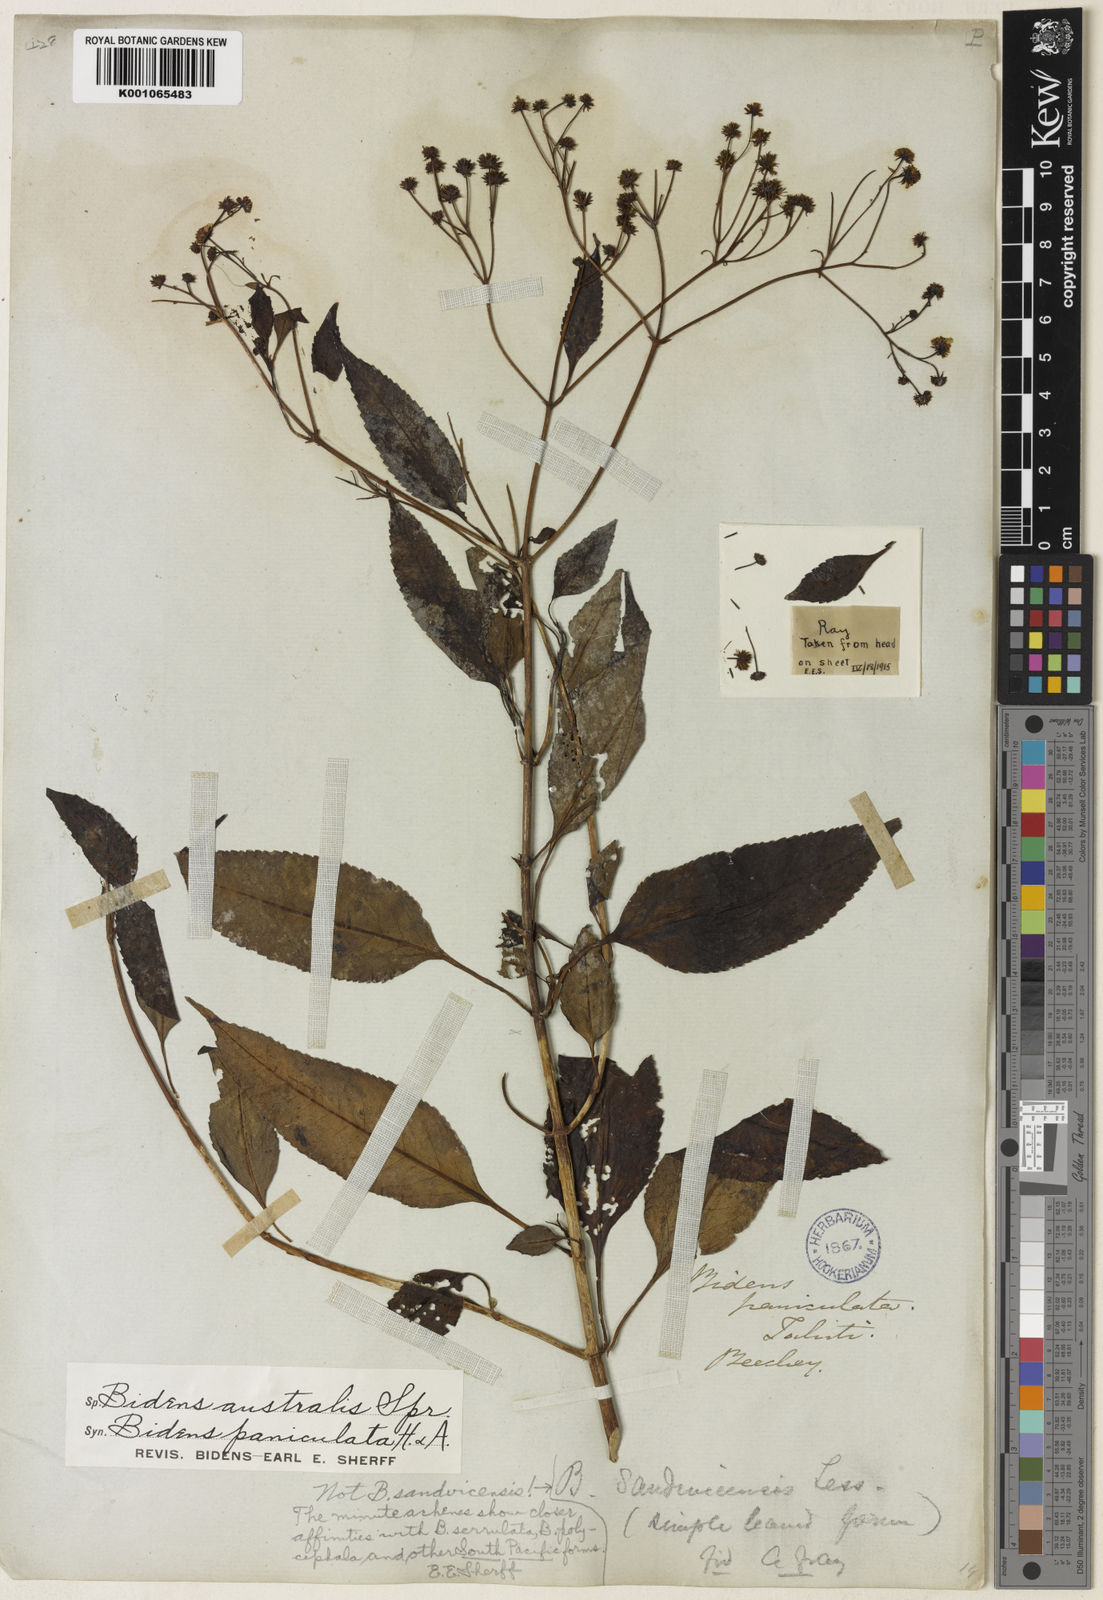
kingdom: Plantae
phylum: Tracheophyta
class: Magnoliopsida
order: Asterales
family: Asteraceae
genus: Bidens
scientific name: Bidens micrantha
